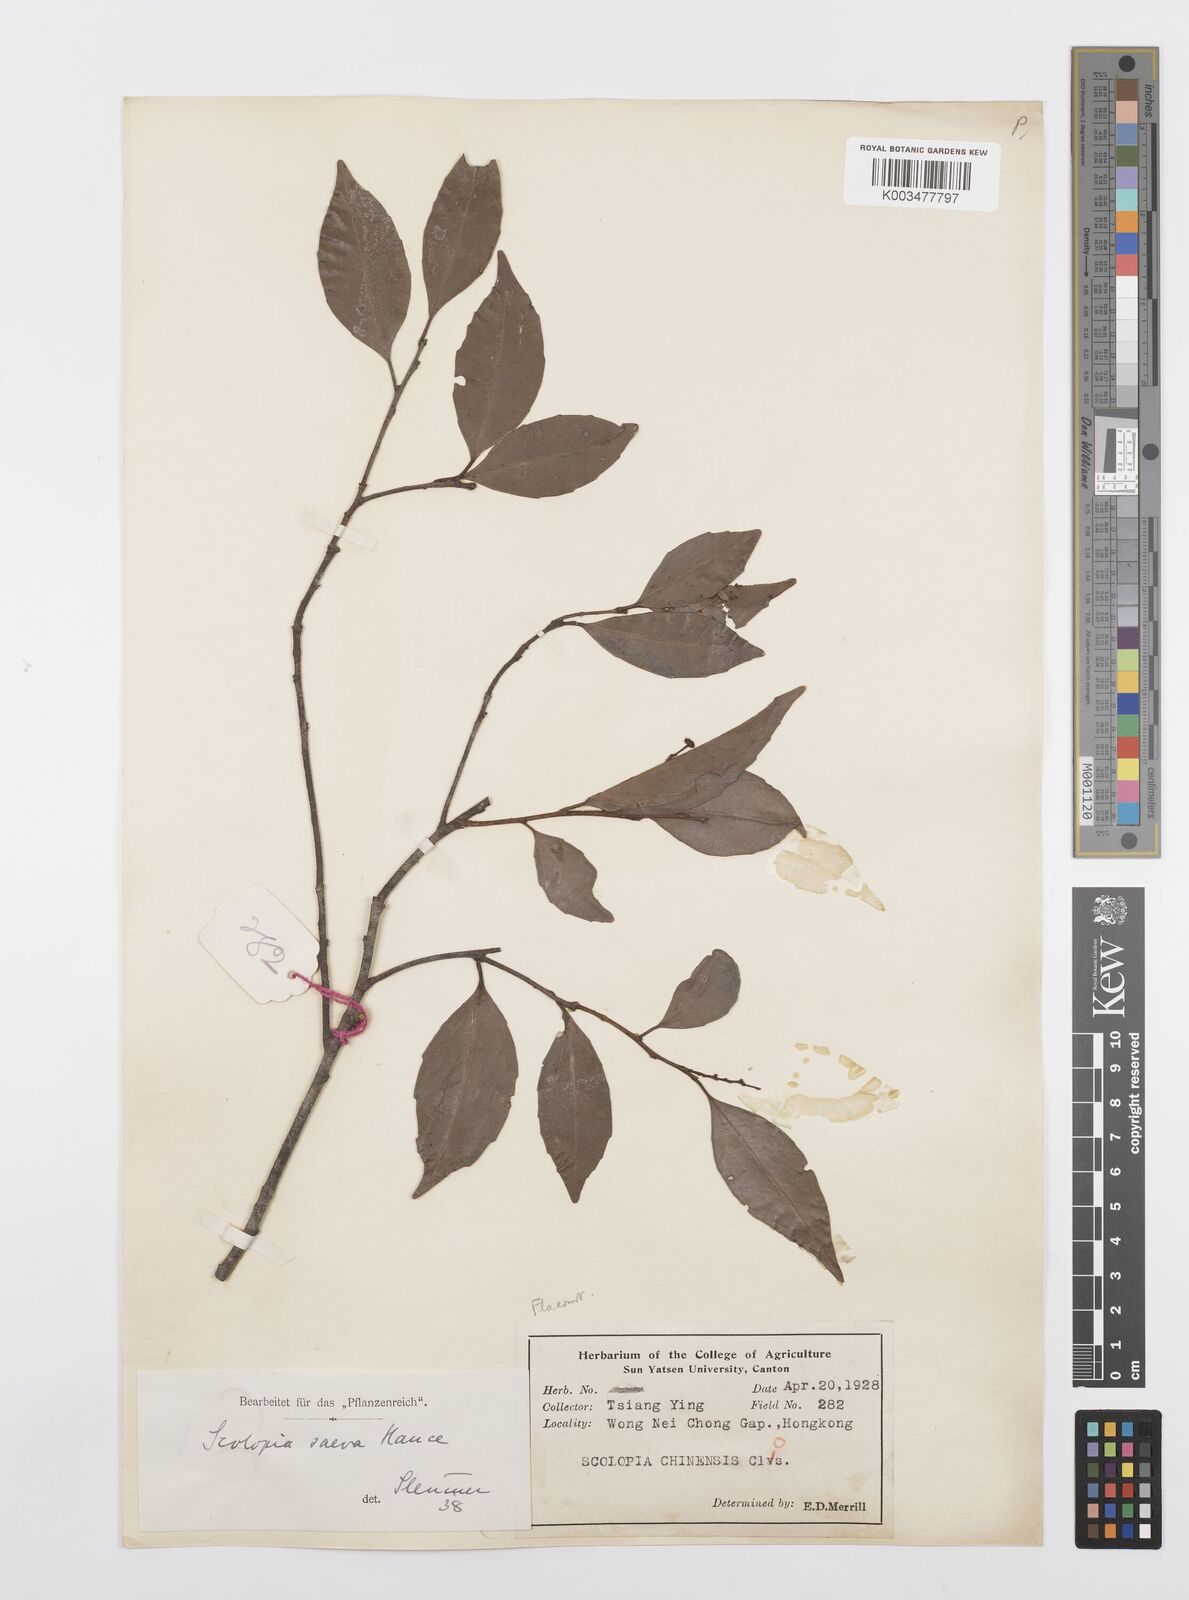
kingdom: Plantae
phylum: Tracheophyta
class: Magnoliopsida
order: Malpighiales
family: Salicaceae
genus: Scolopia
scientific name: Scolopia saeva
